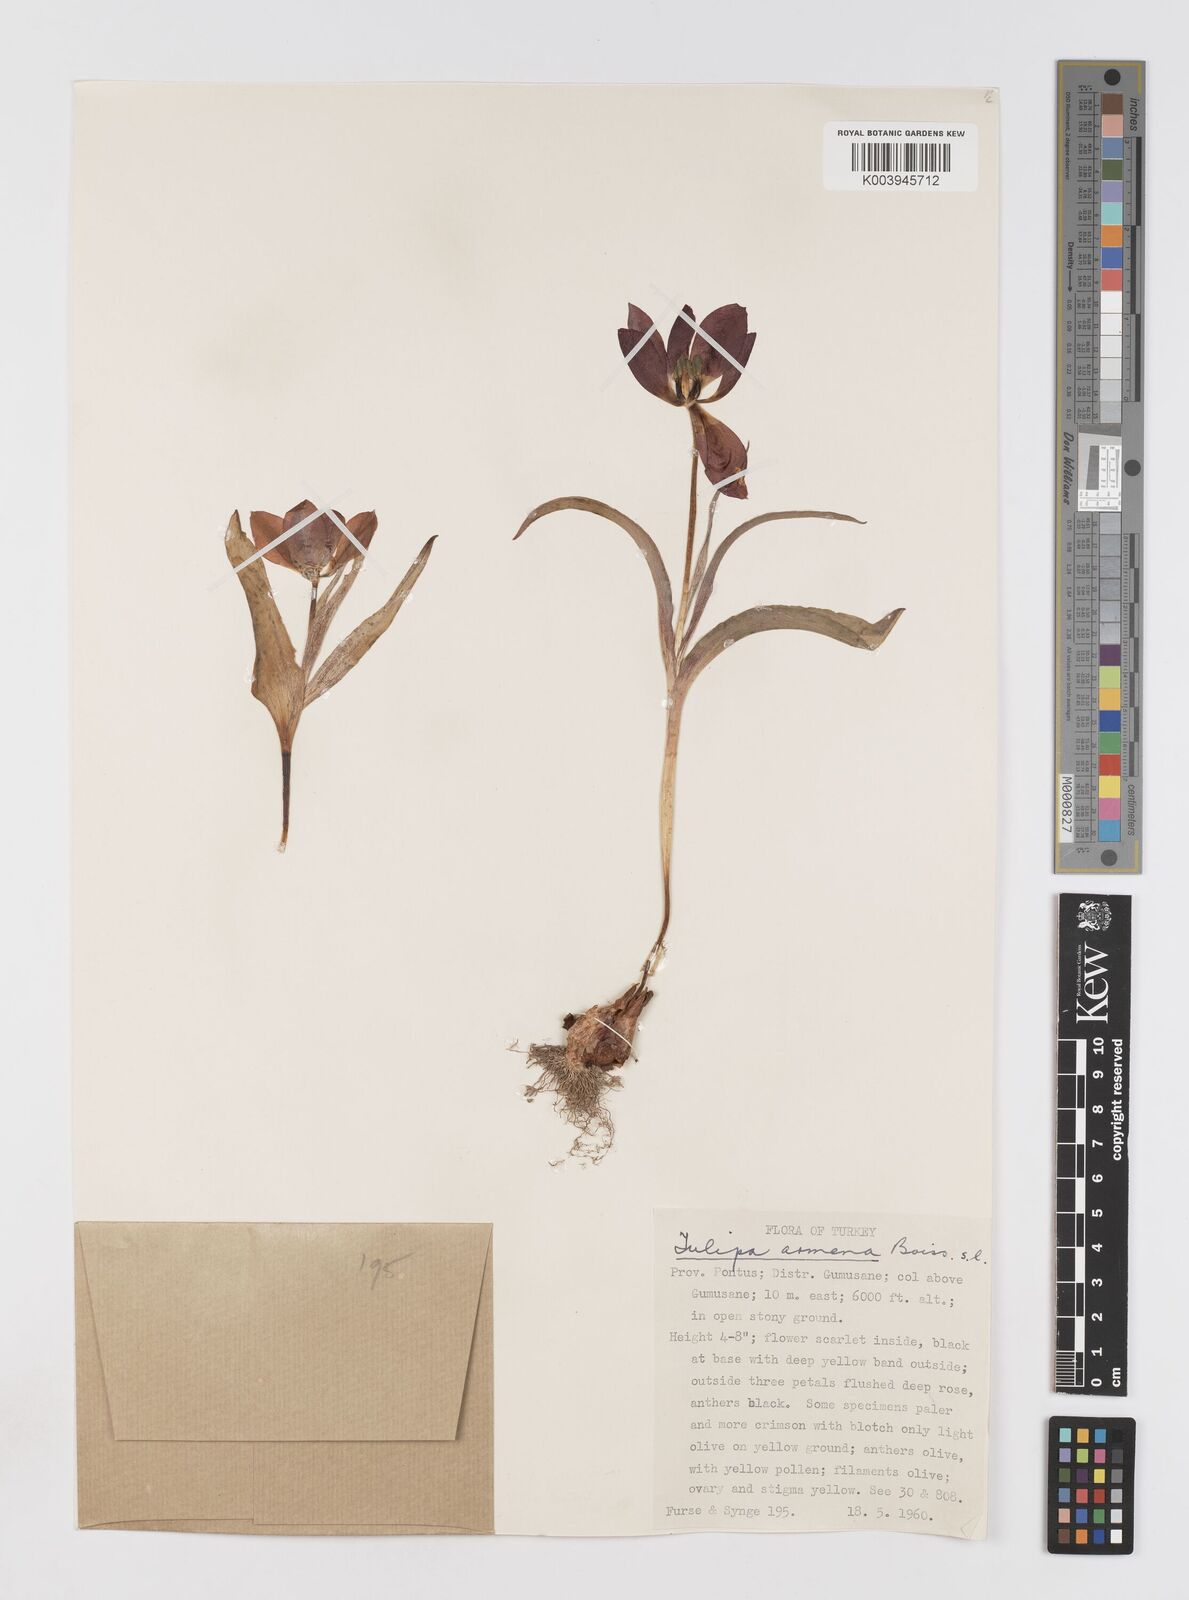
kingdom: Plantae
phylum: Tracheophyta
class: Liliopsida
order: Liliales
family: Liliaceae
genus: Tulipa
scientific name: Tulipa armena
